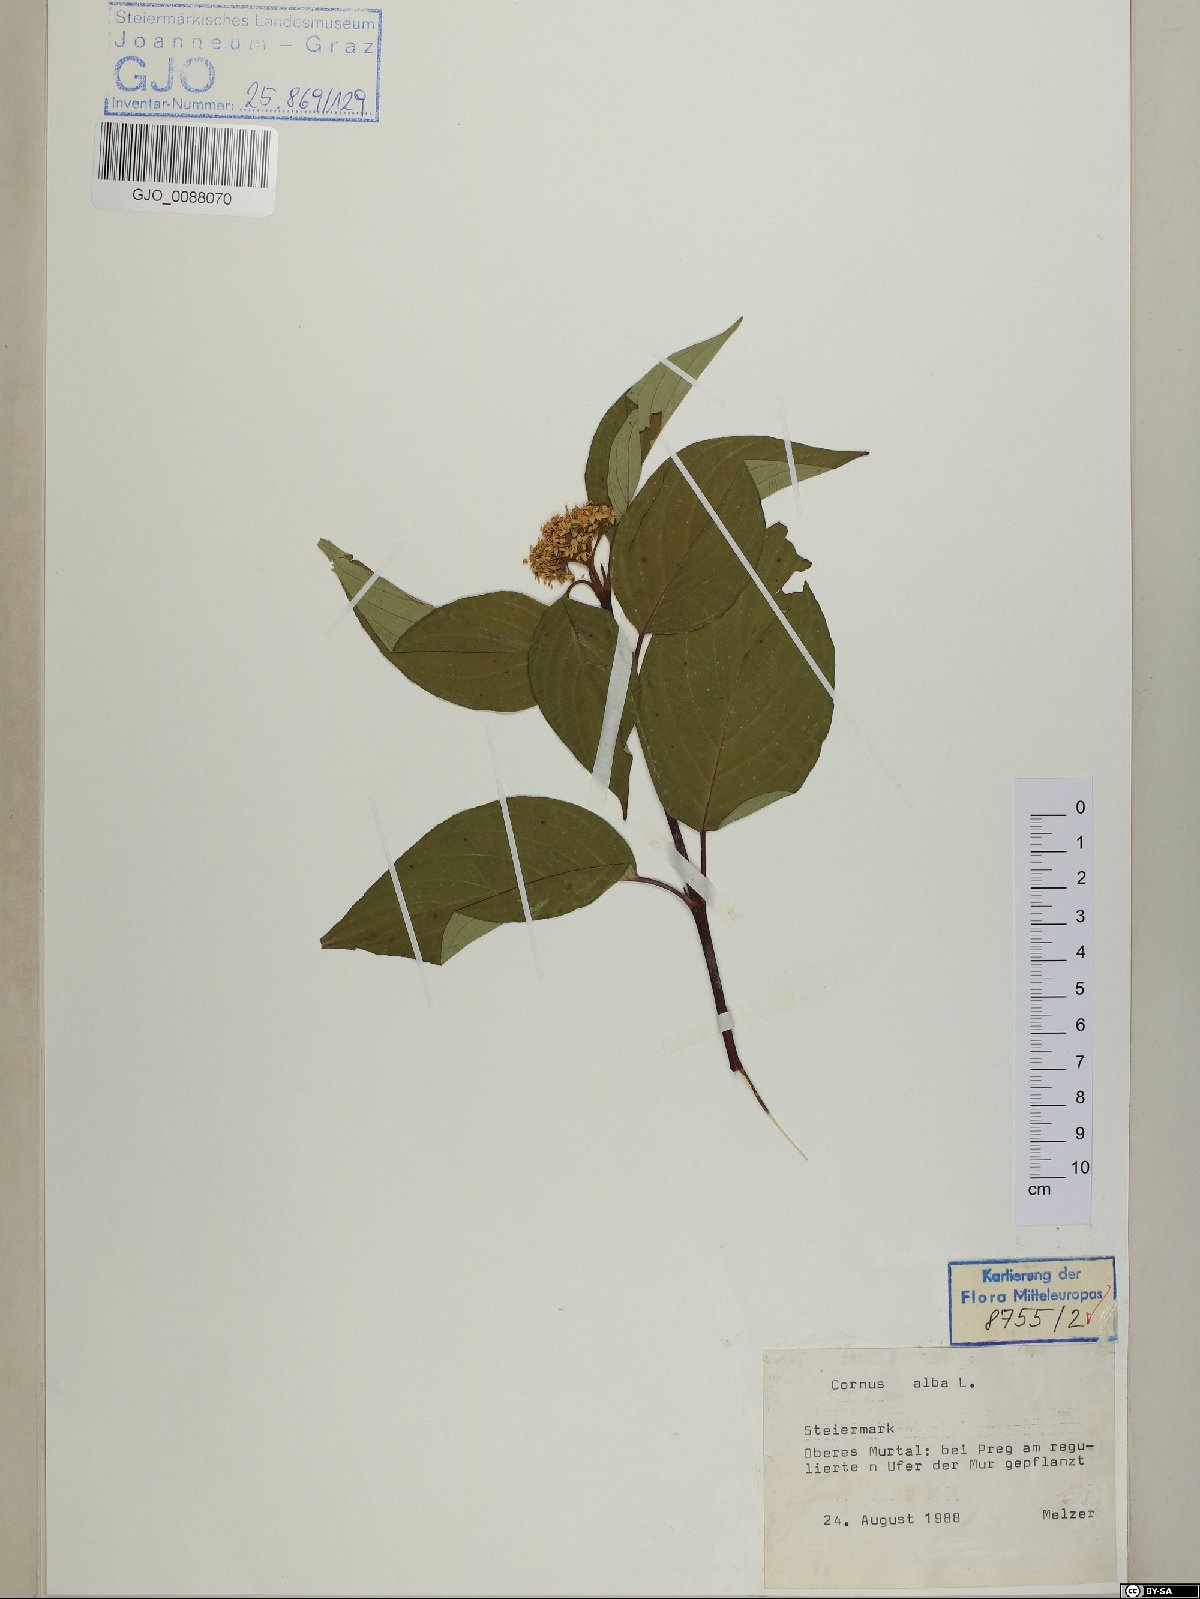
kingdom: Plantae
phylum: Tracheophyta
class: Magnoliopsida
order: Cornales
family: Cornaceae
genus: Cornus
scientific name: Cornus alba
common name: White dogwood
